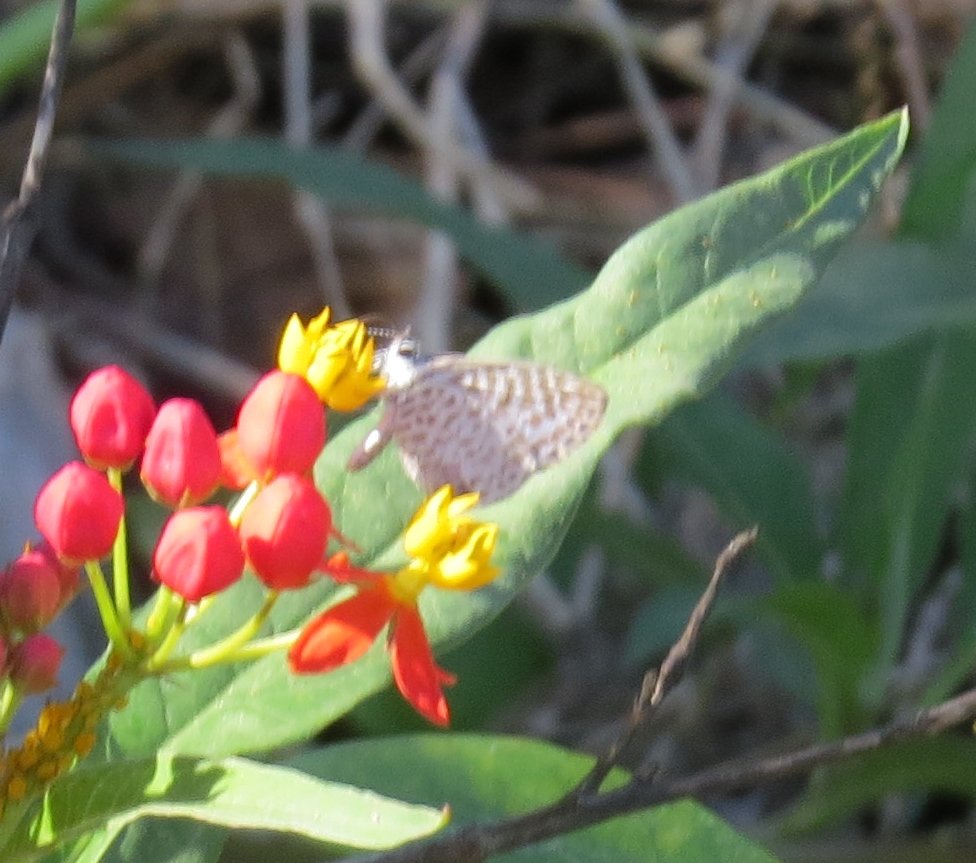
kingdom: Animalia
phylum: Arthropoda
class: Insecta
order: Lepidoptera
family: Lycaenidae
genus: Leptotes
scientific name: Leptotes cassius
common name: Cassius Blue
